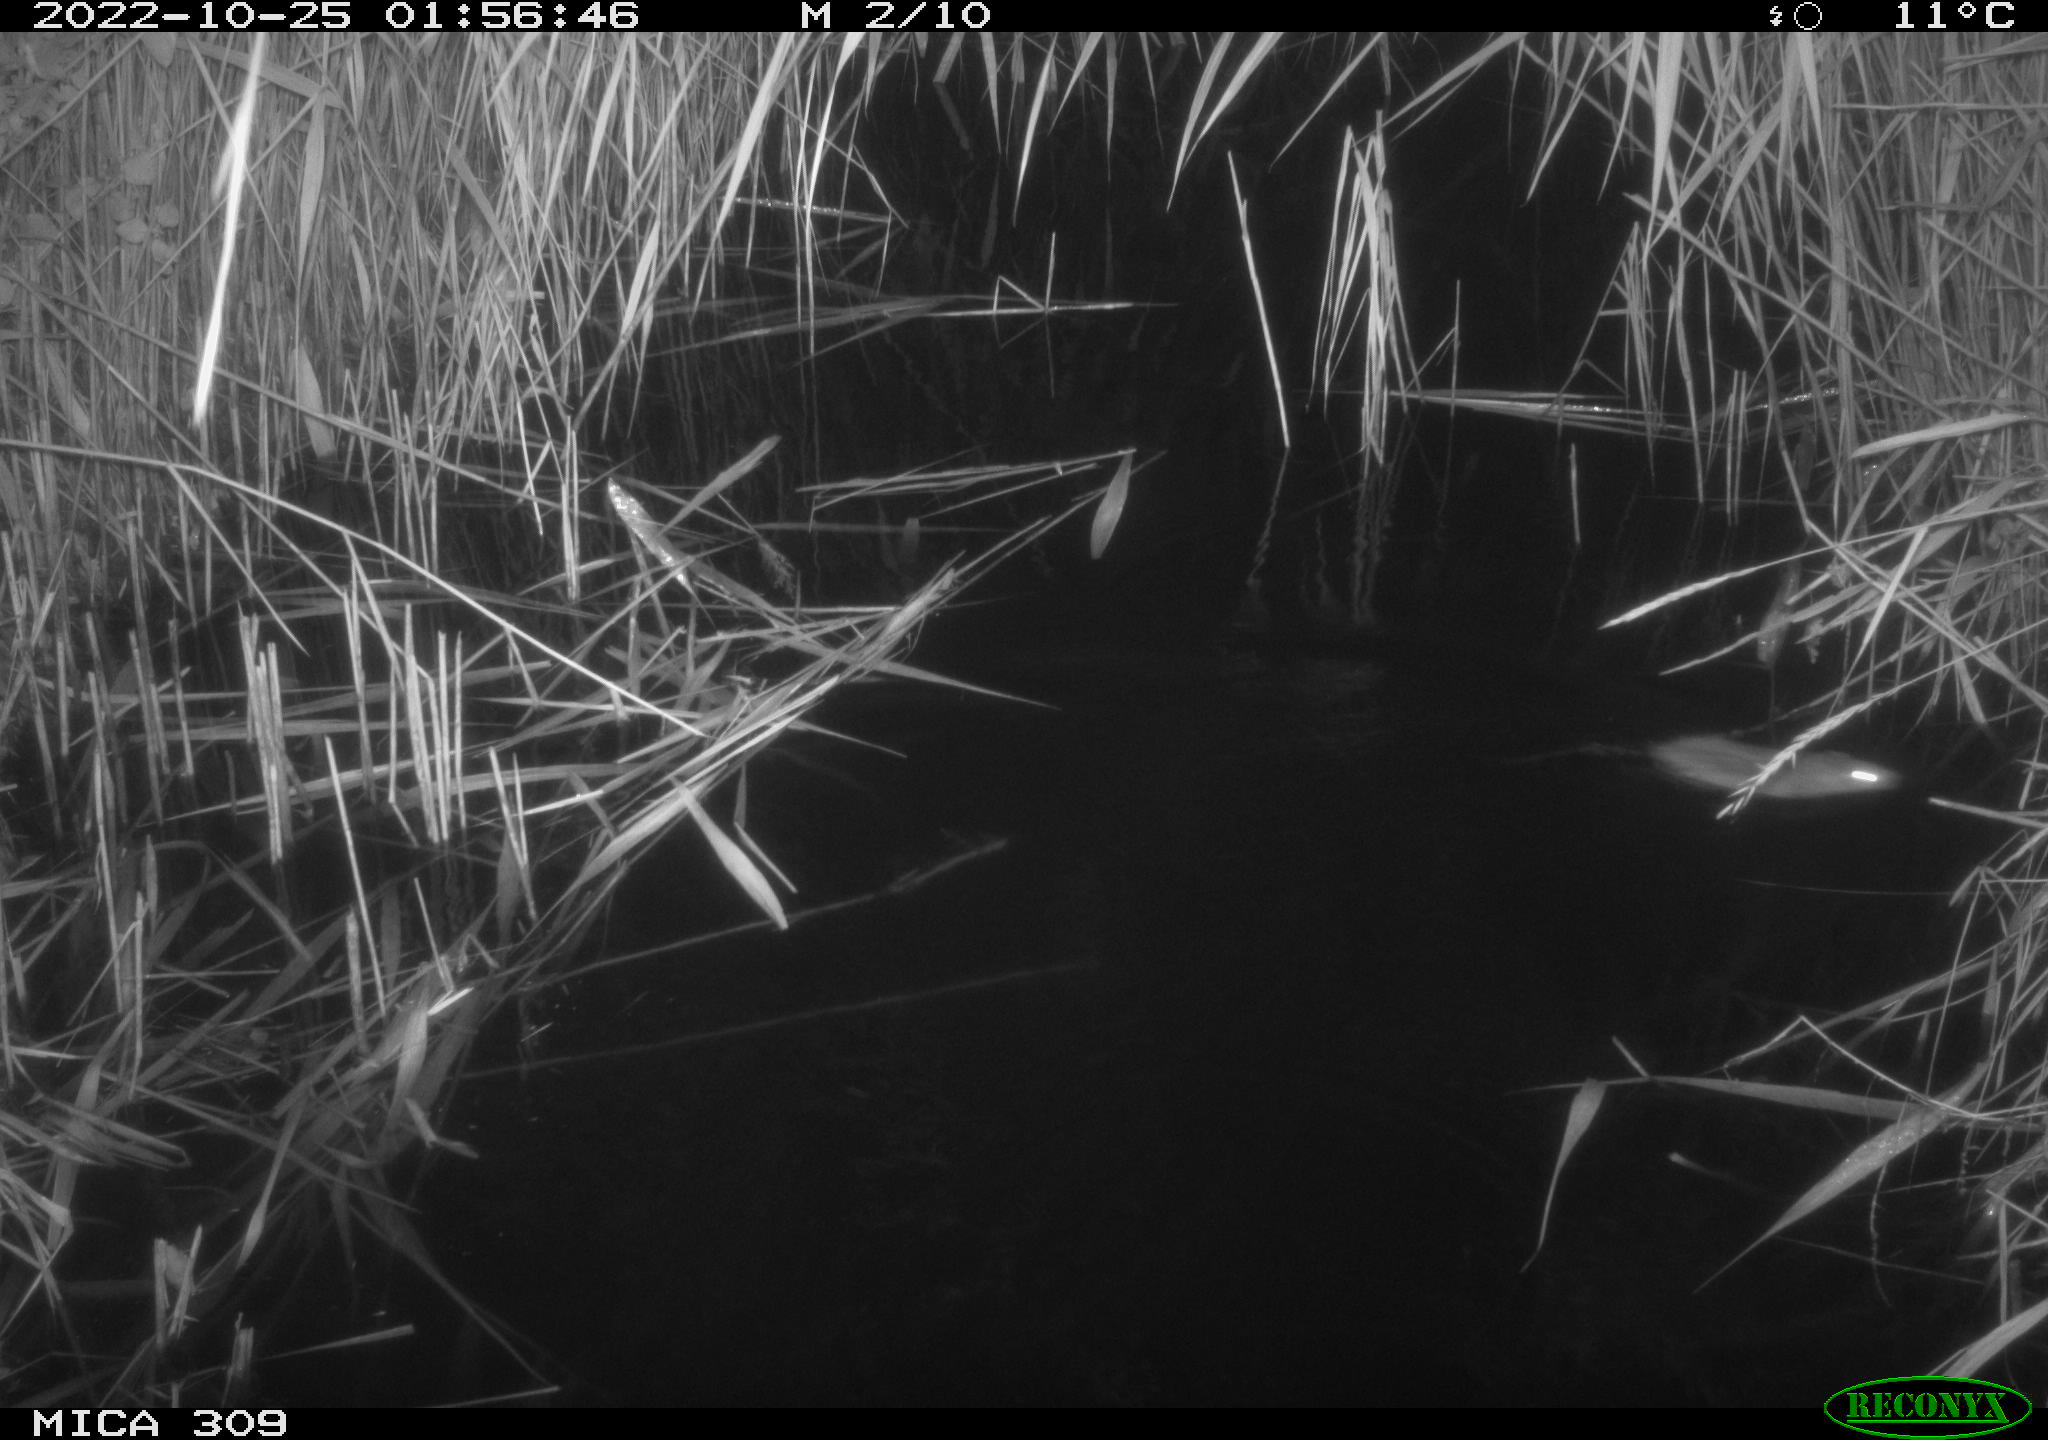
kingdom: Animalia
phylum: Chordata
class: Mammalia
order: Rodentia
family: Muridae
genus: Rattus
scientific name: Rattus norvegicus
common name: Brown rat
